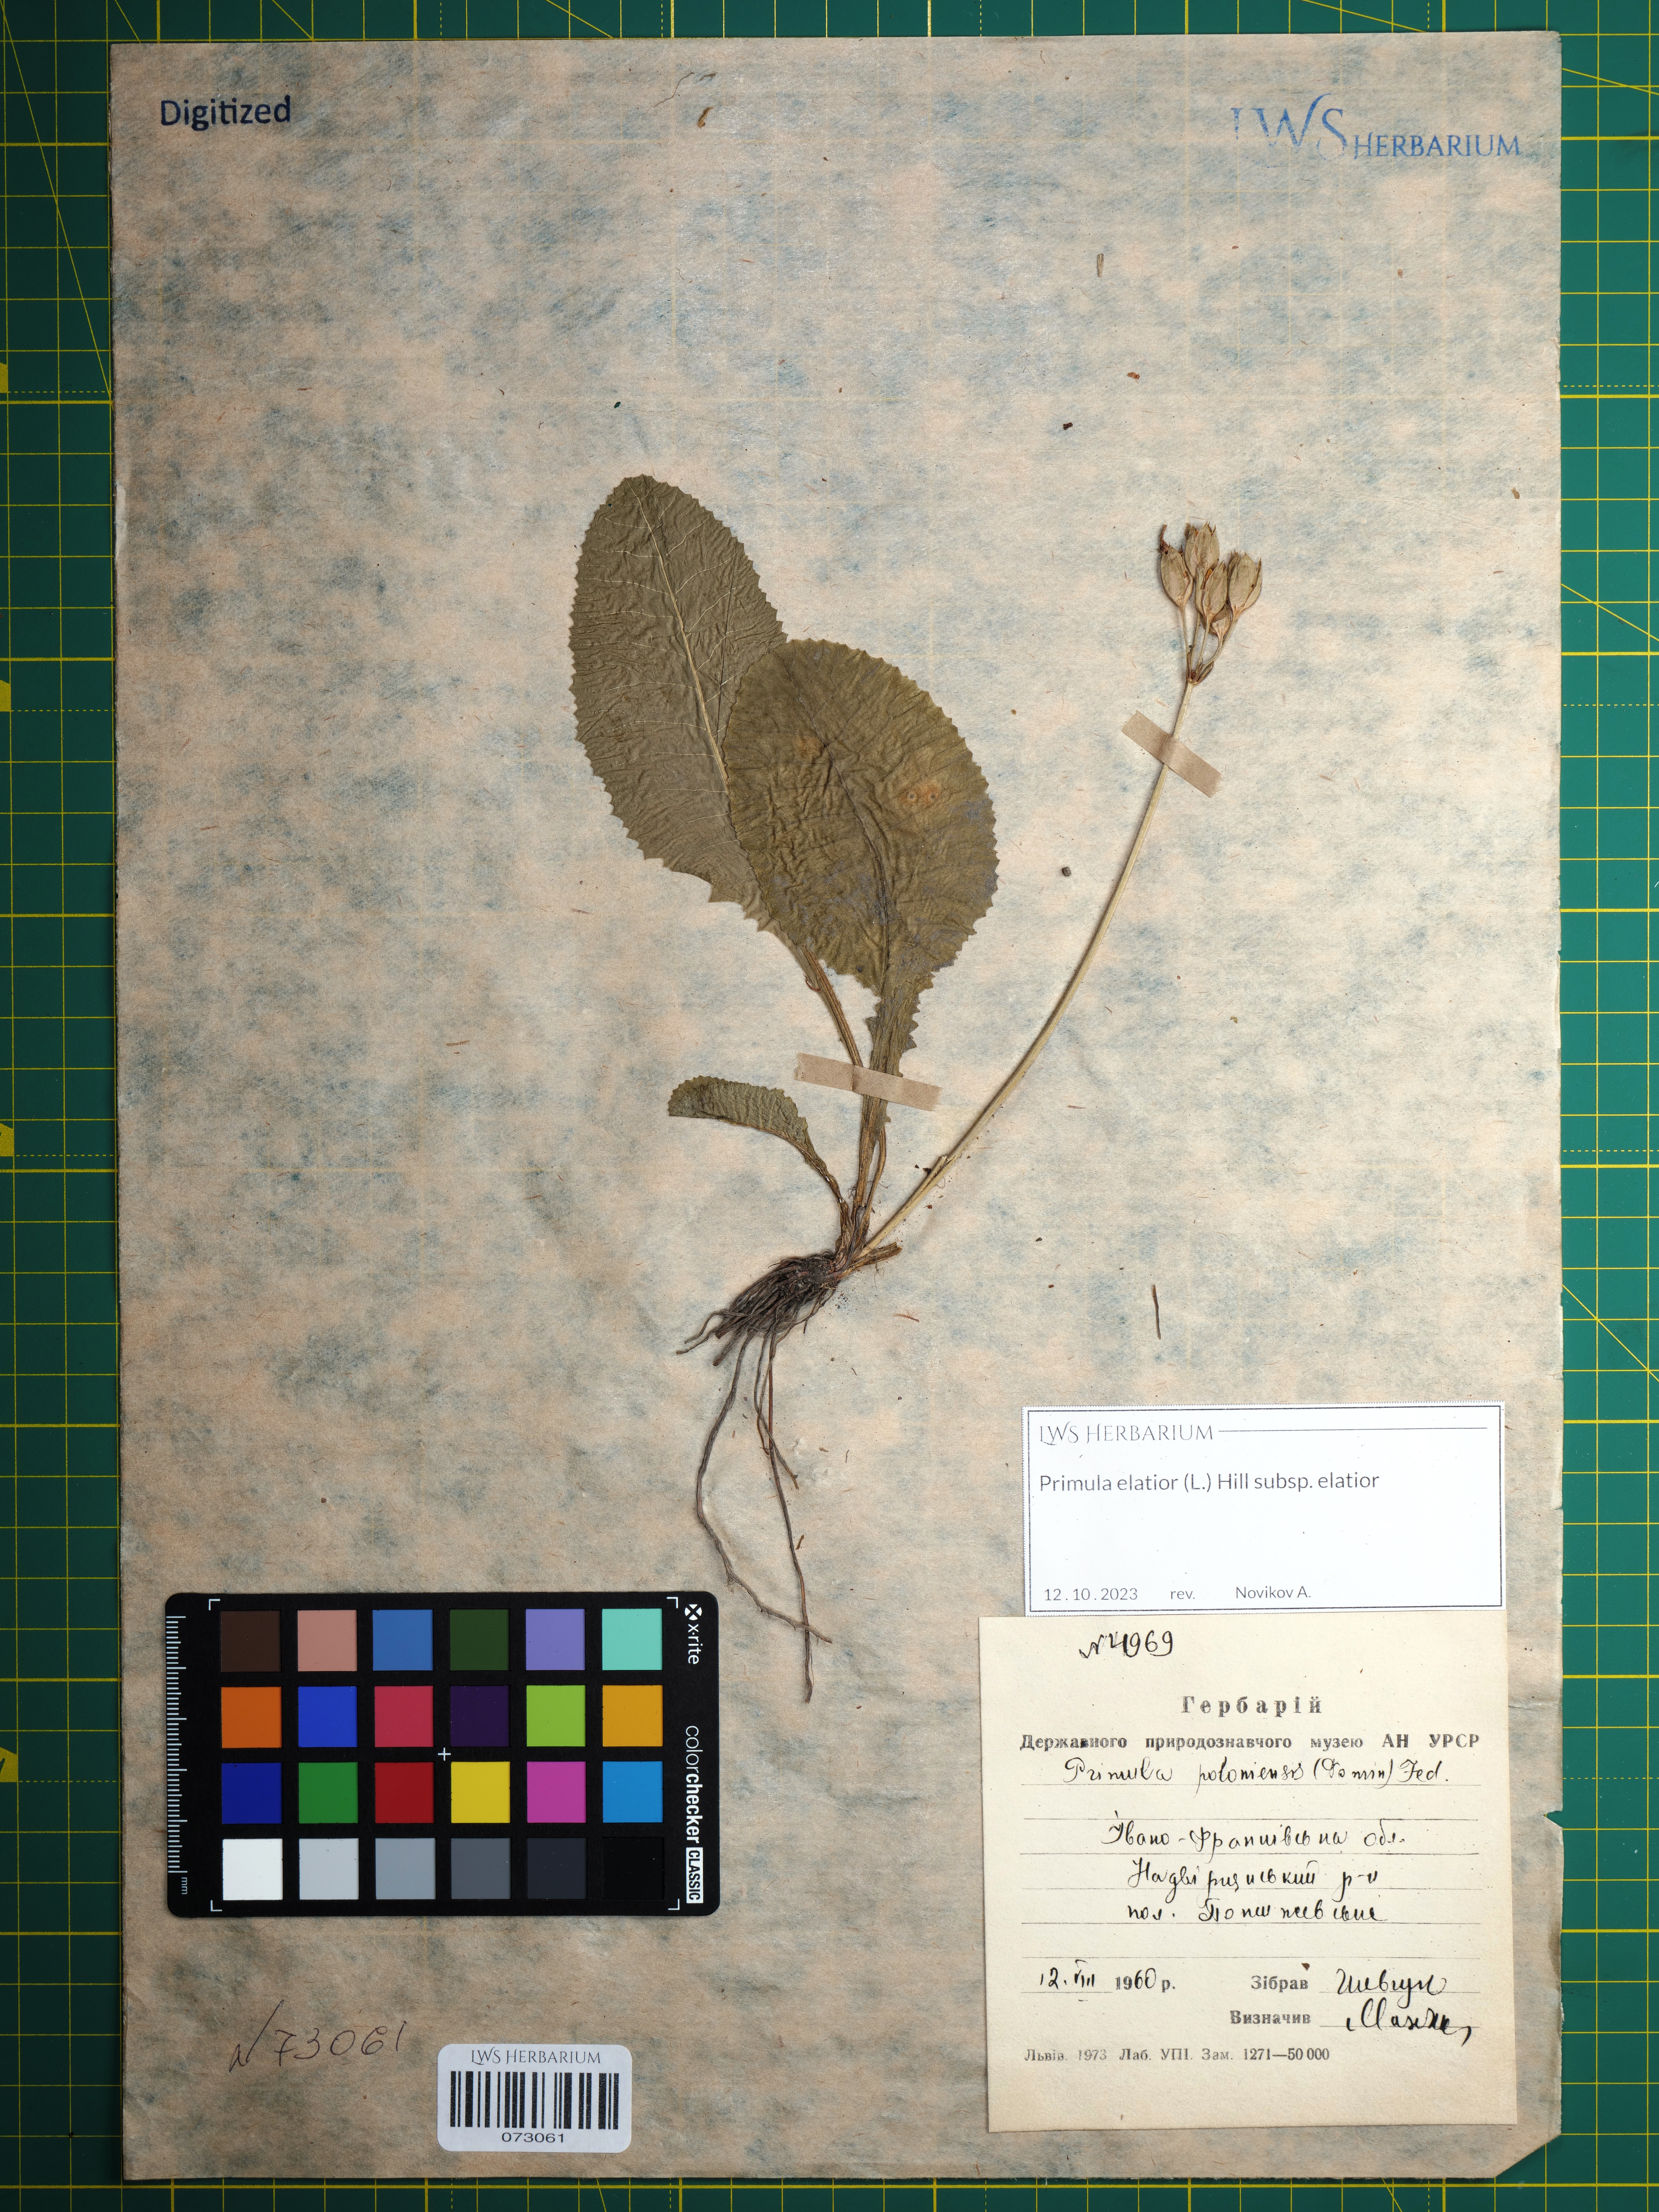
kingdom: Plantae
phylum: Tracheophyta
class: Magnoliopsida
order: Ericales
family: Primulaceae
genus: Primula
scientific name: Primula elatior
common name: Oxlip
